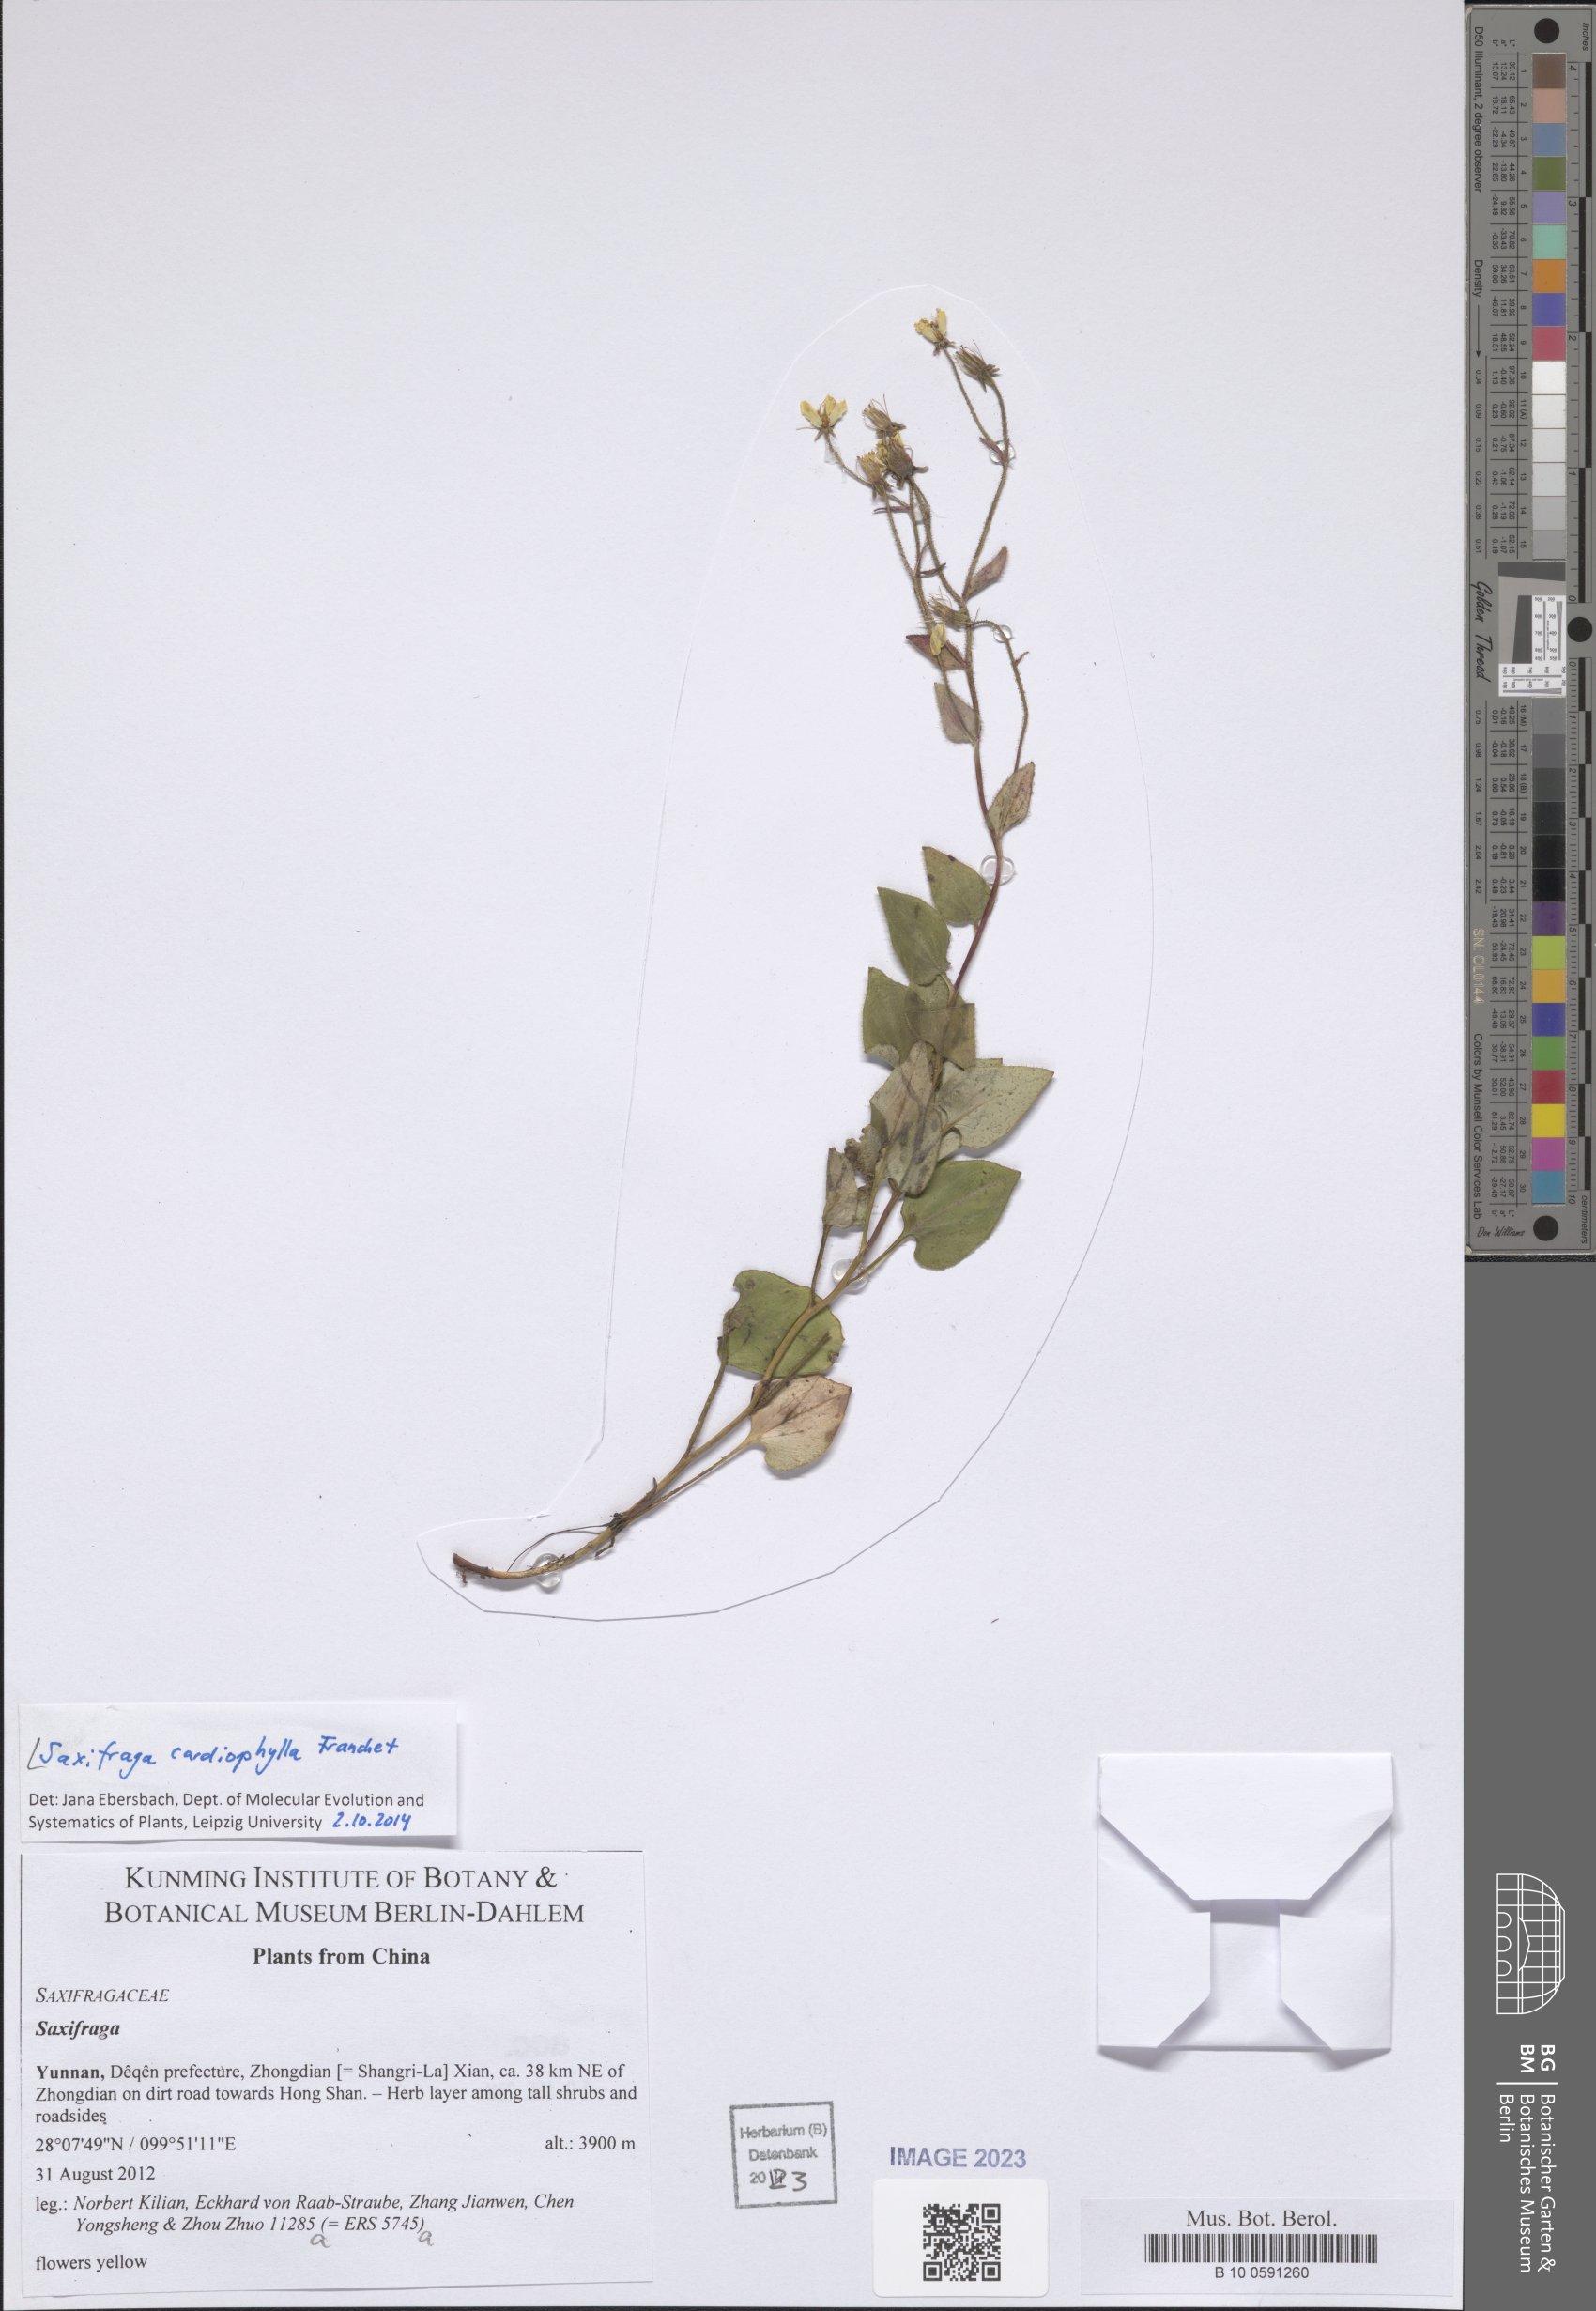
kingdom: Plantae
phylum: Tracheophyta
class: Magnoliopsida
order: Saxifragales
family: Saxifragaceae
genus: Saxifraga
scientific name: Saxifraga cardiophylla
